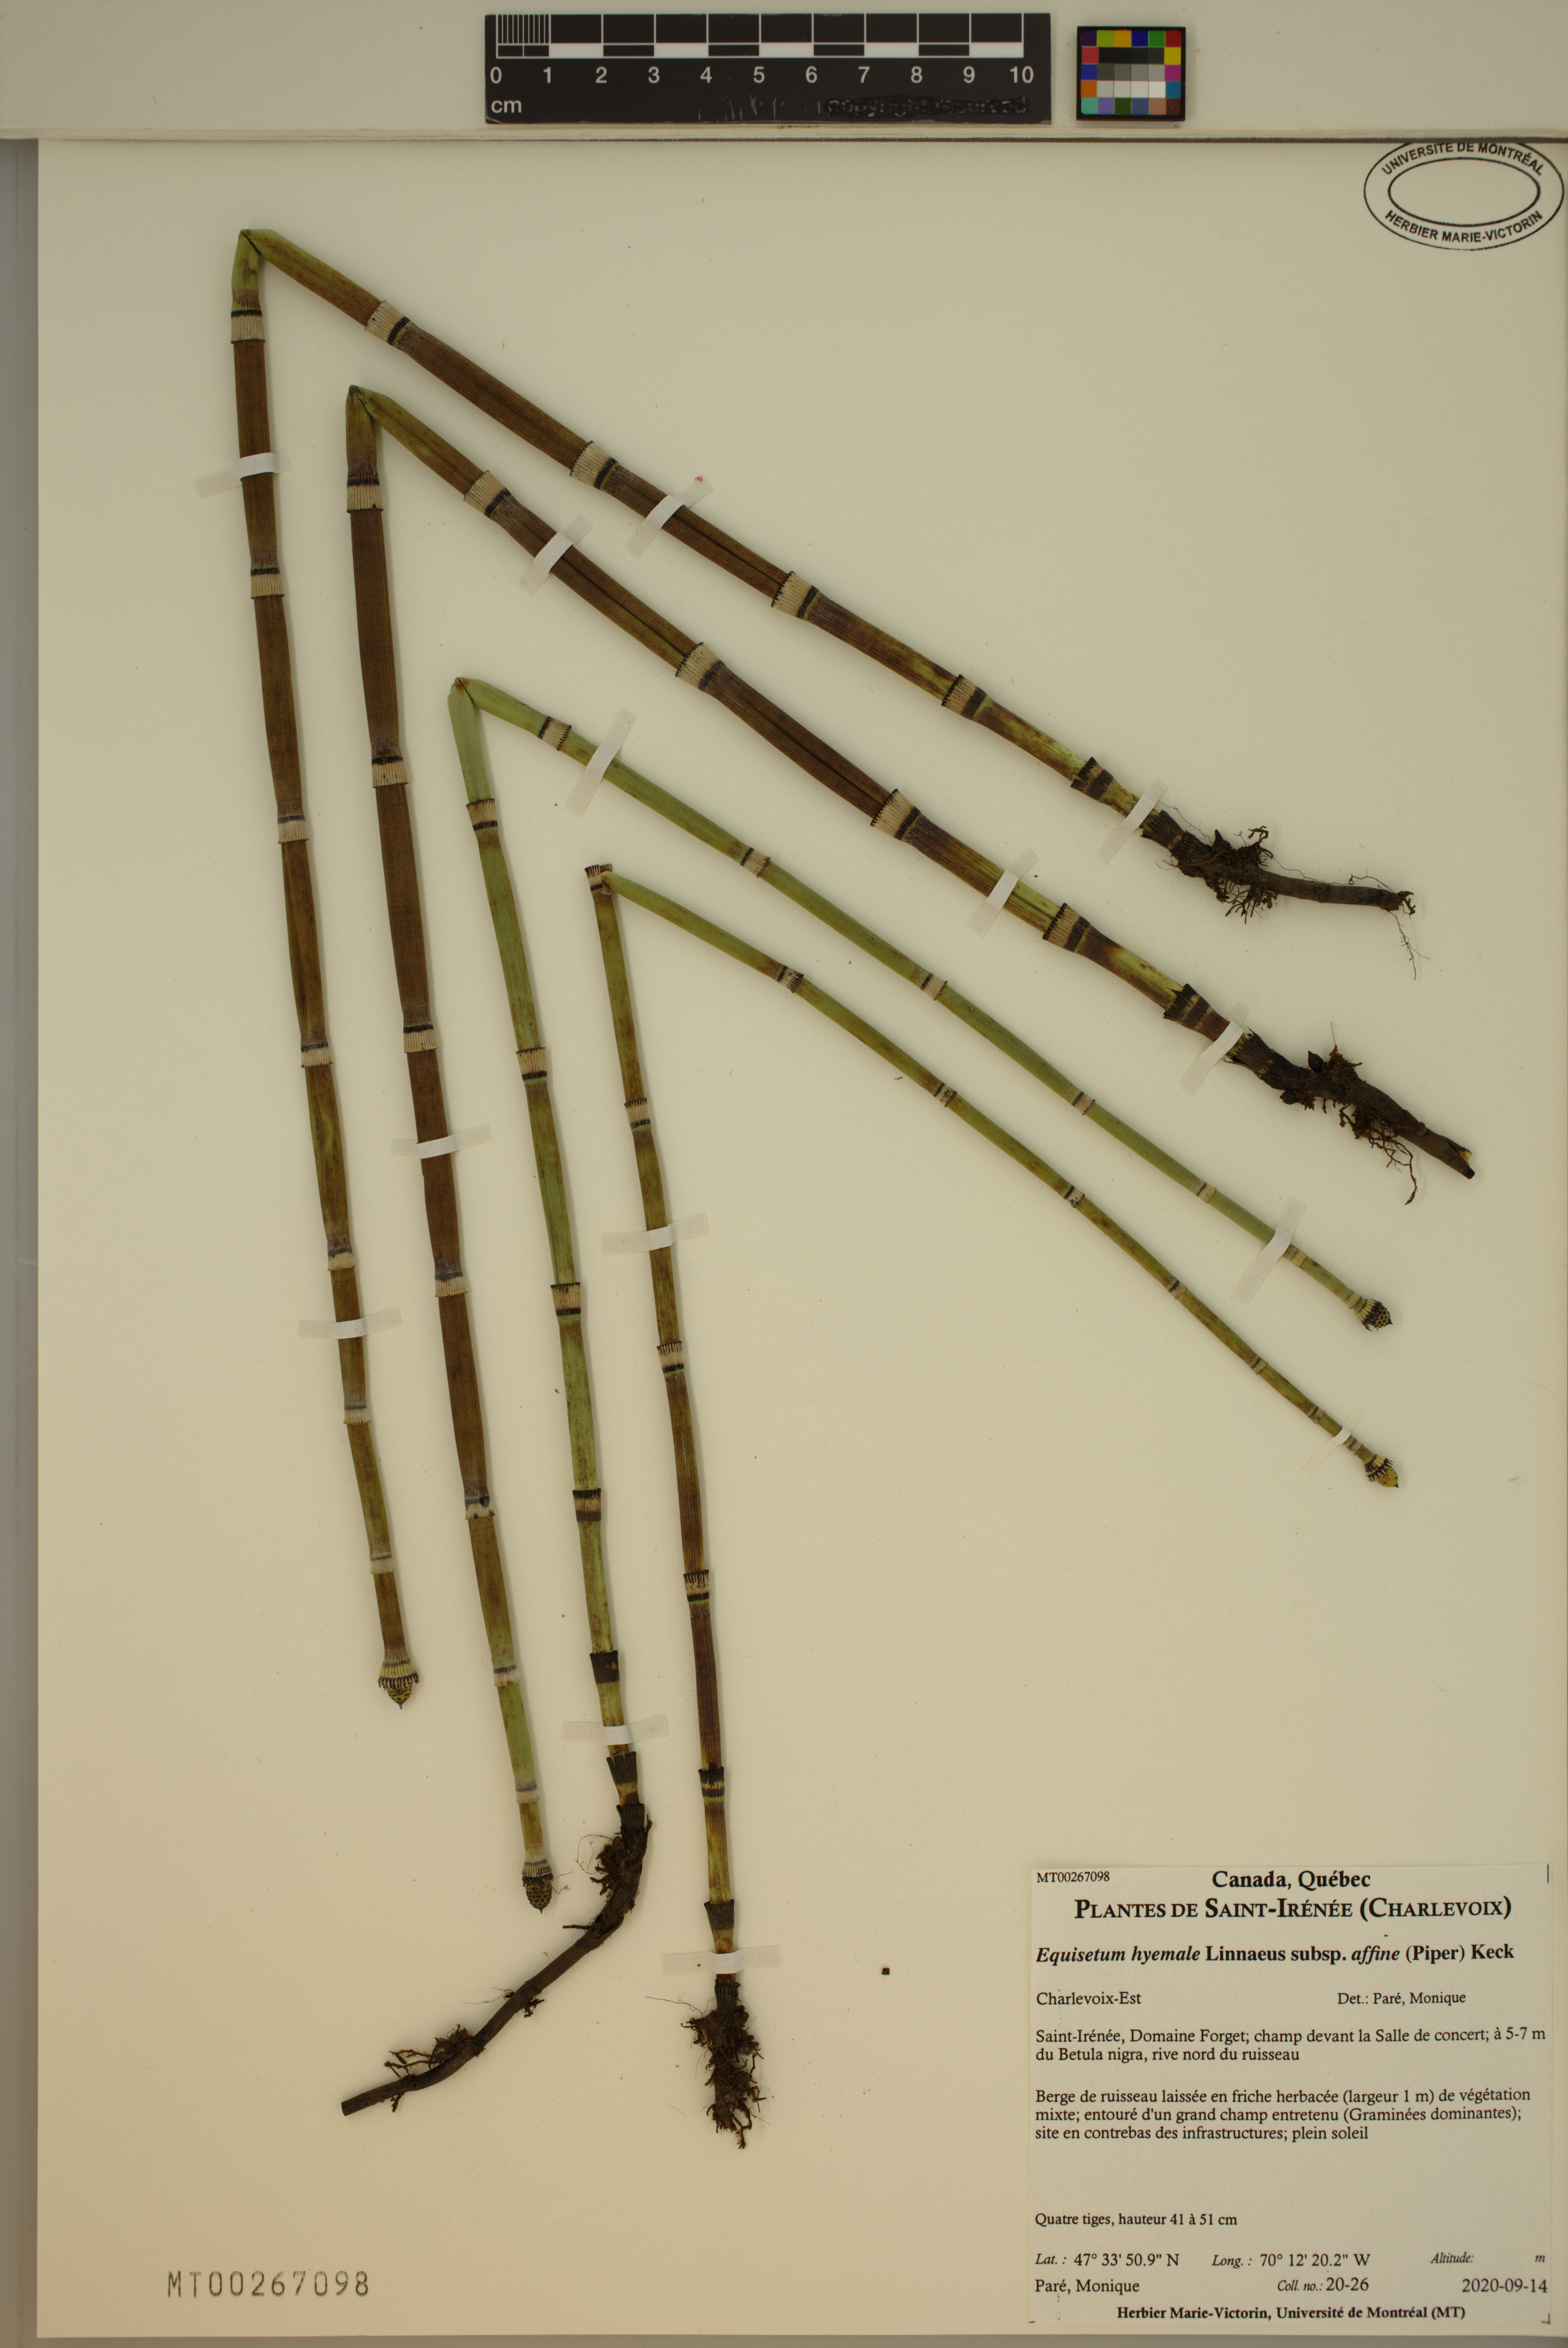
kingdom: Plantae
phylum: Tracheophyta
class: Polypodiopsida
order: Equisetales
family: Equisetaceae
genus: Equisetum
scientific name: Equisetum praealtum
